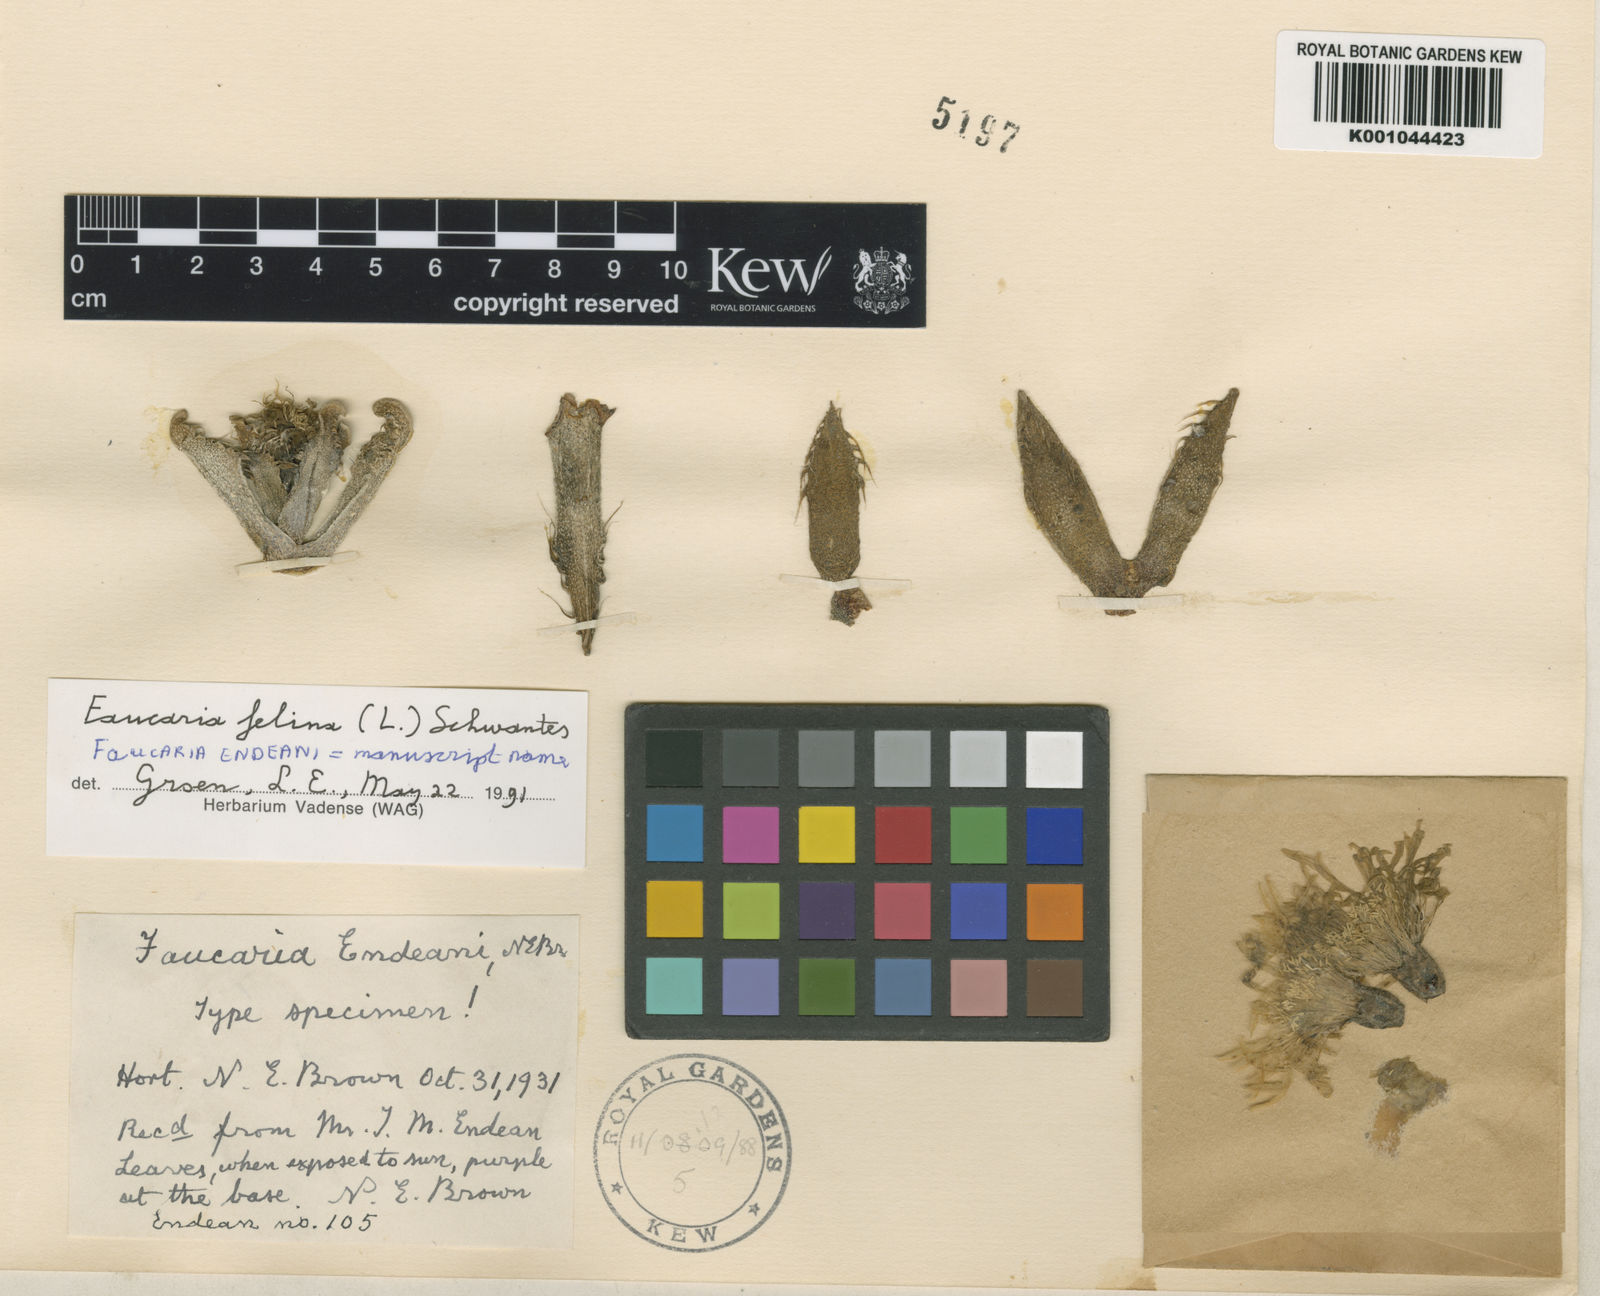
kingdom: Plantae
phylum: Tracheophyta
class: Magnoliopsida
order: Caryophyllales
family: Aizoaceae
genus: Faucaria
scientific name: Faucaria felina
